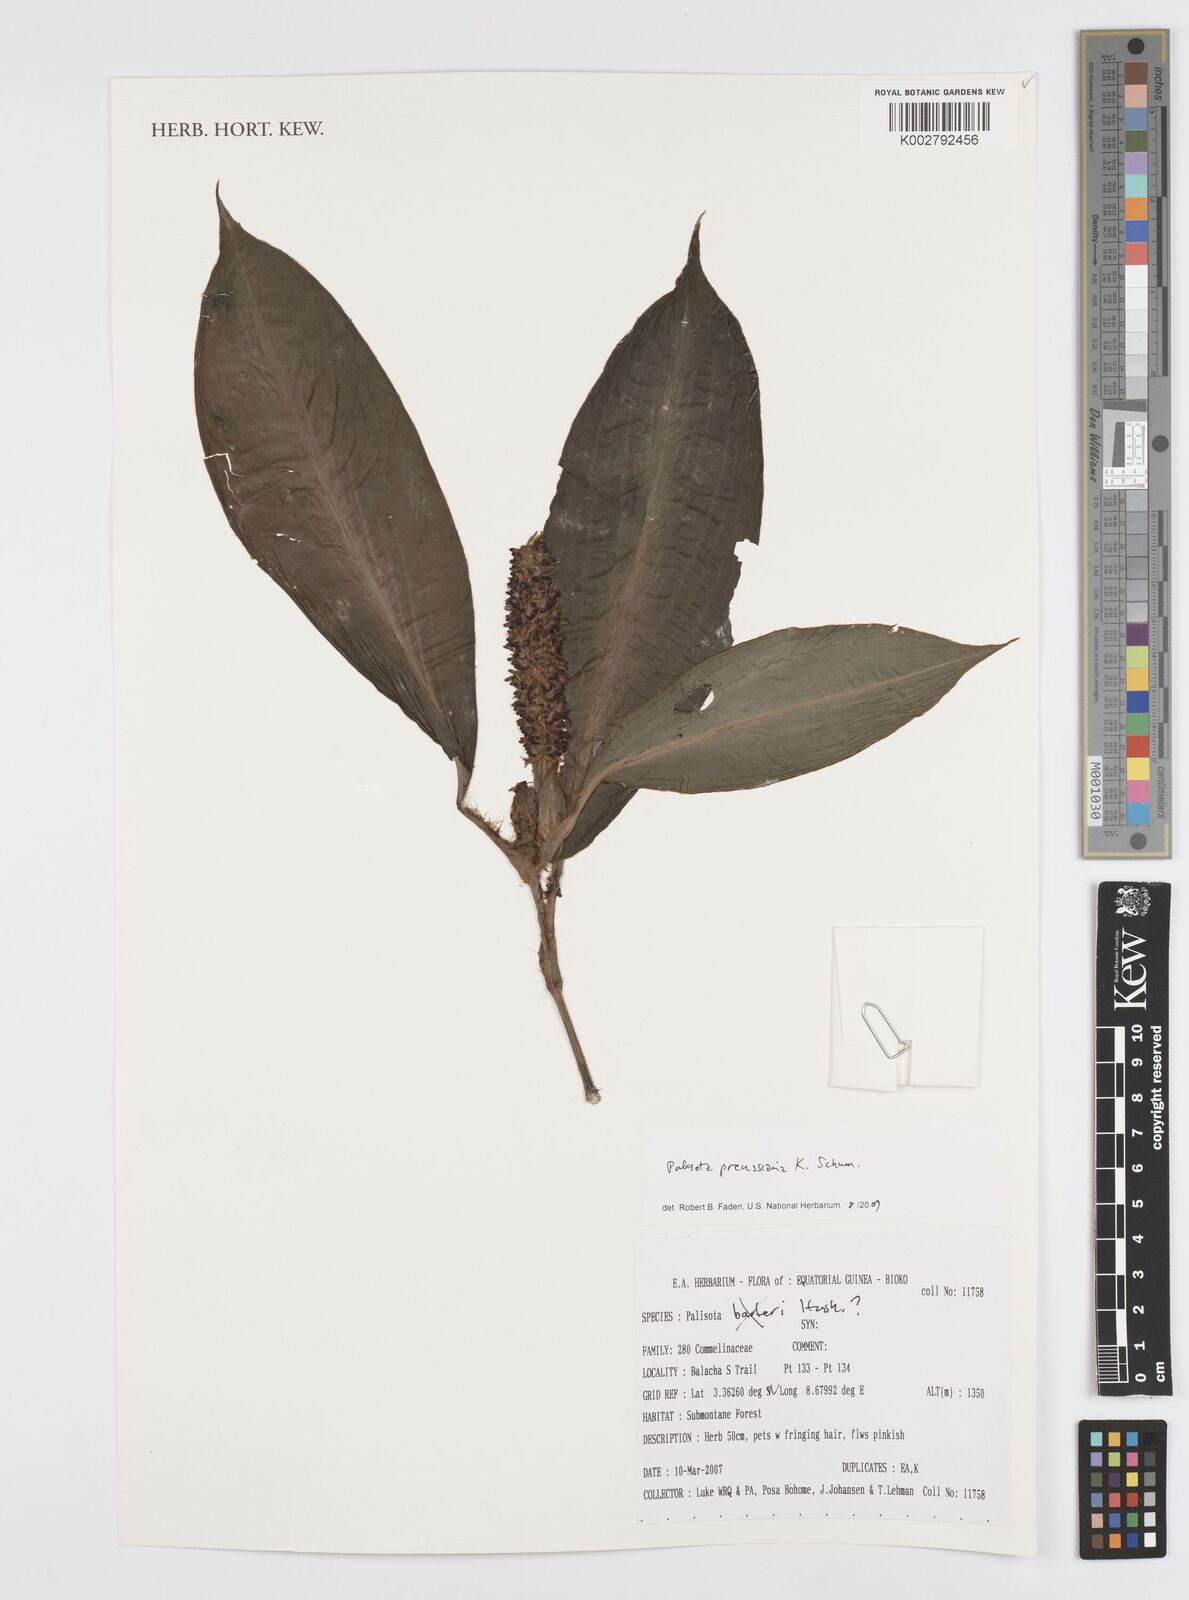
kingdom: Plantae
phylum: Tracheophyta
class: Liliopsida
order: Commelinales
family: Commelinaceae
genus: Palisota
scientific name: Palisota preussiana
